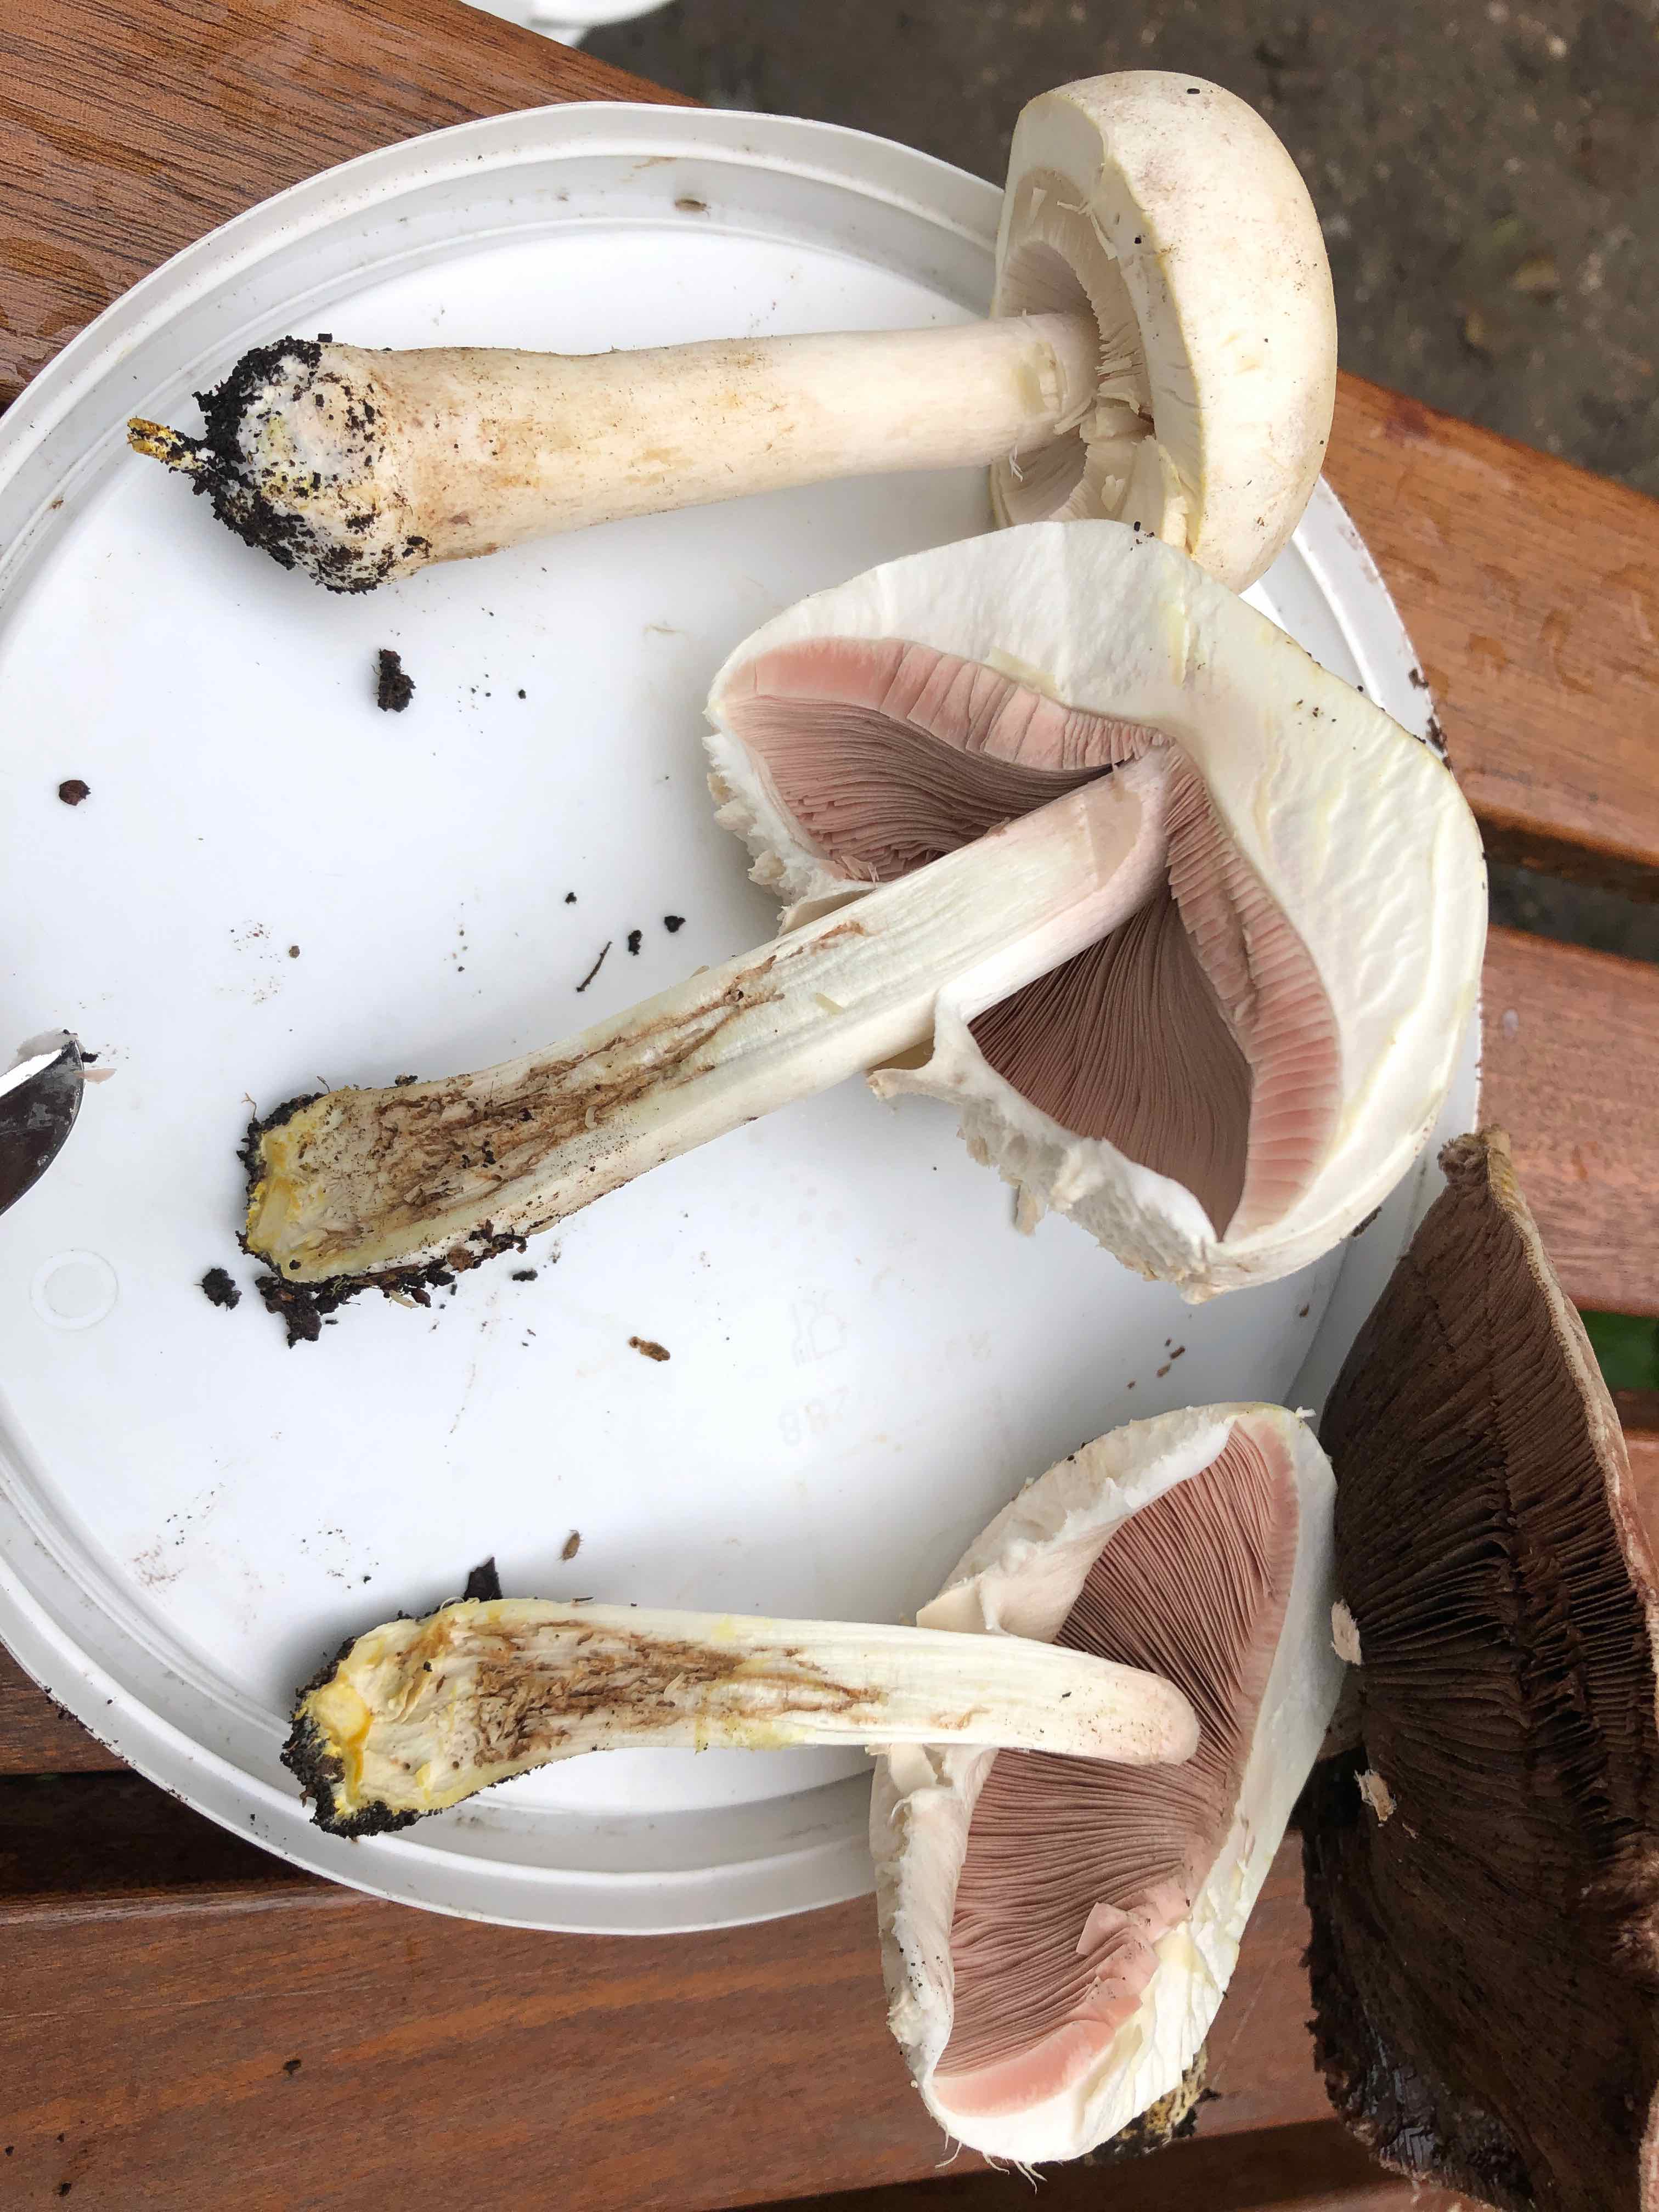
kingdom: Fungi
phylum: Basidiomycota
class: Agaricomycetes
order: Agaricales
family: Agaricaceae
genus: Agaricus
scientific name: Agaricus xanthodermus
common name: karbol-champignon
